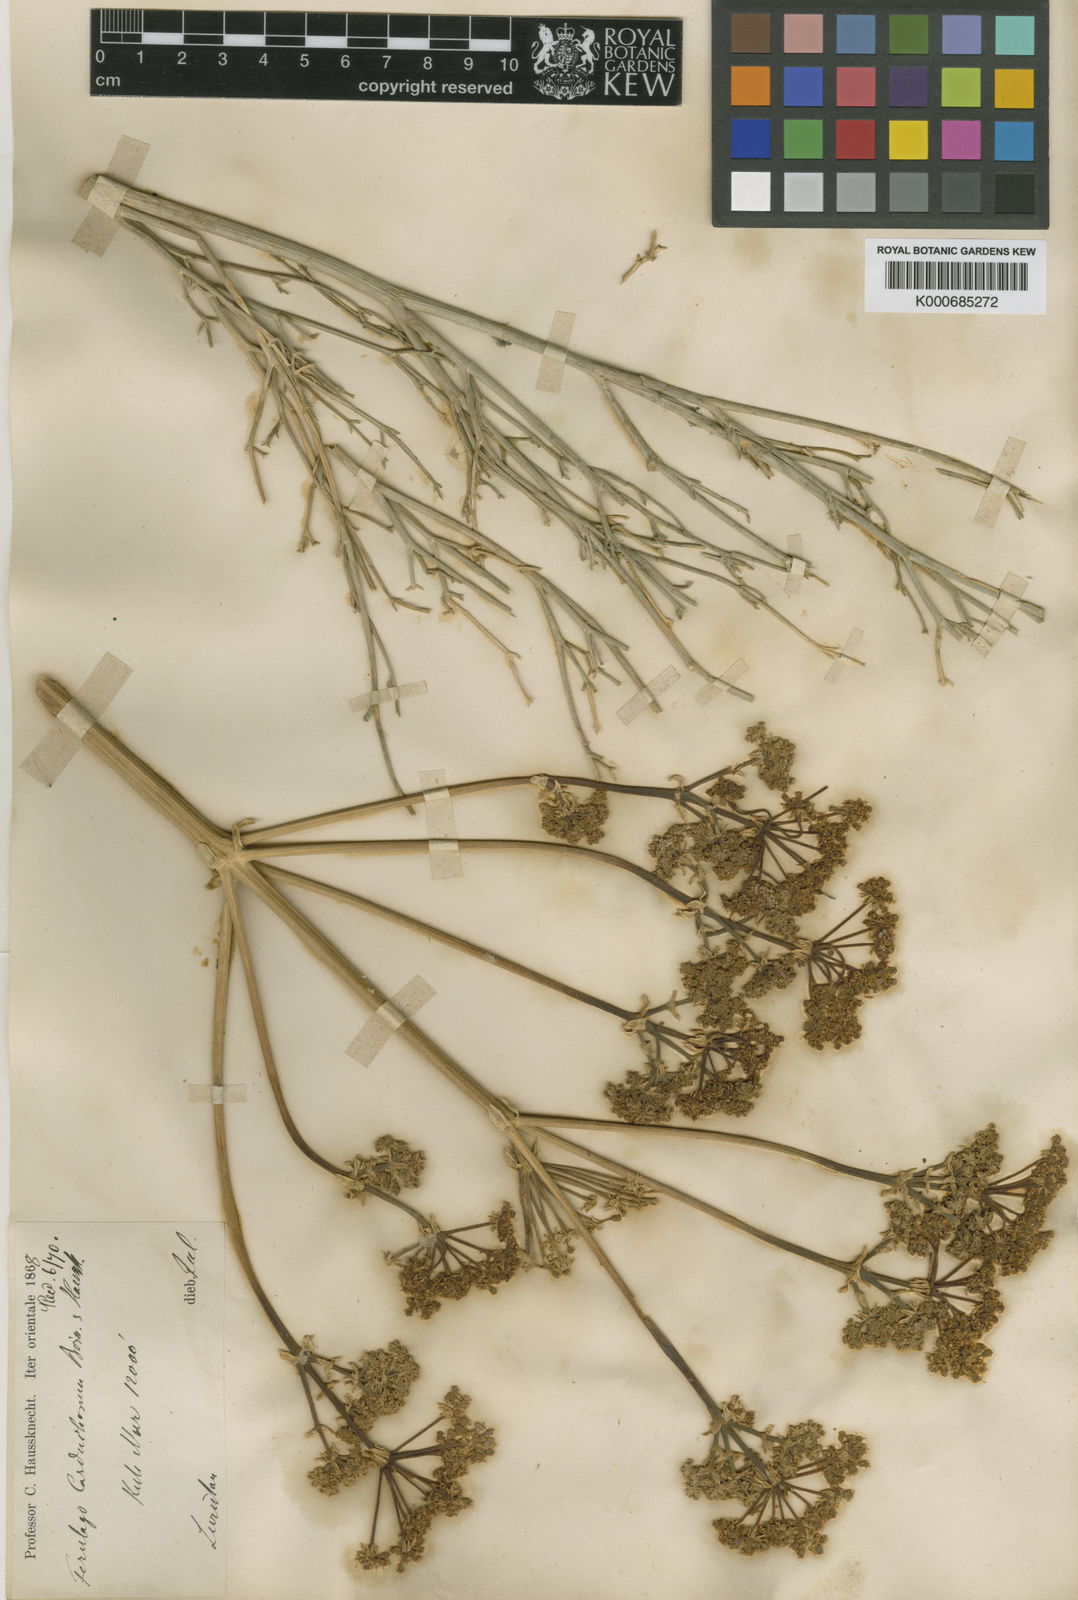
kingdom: Plantae
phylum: Tracheophyta
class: Magnoliopsida
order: Apiales
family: Apiaceae
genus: Ferulago
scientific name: Ferulago carduchorum
